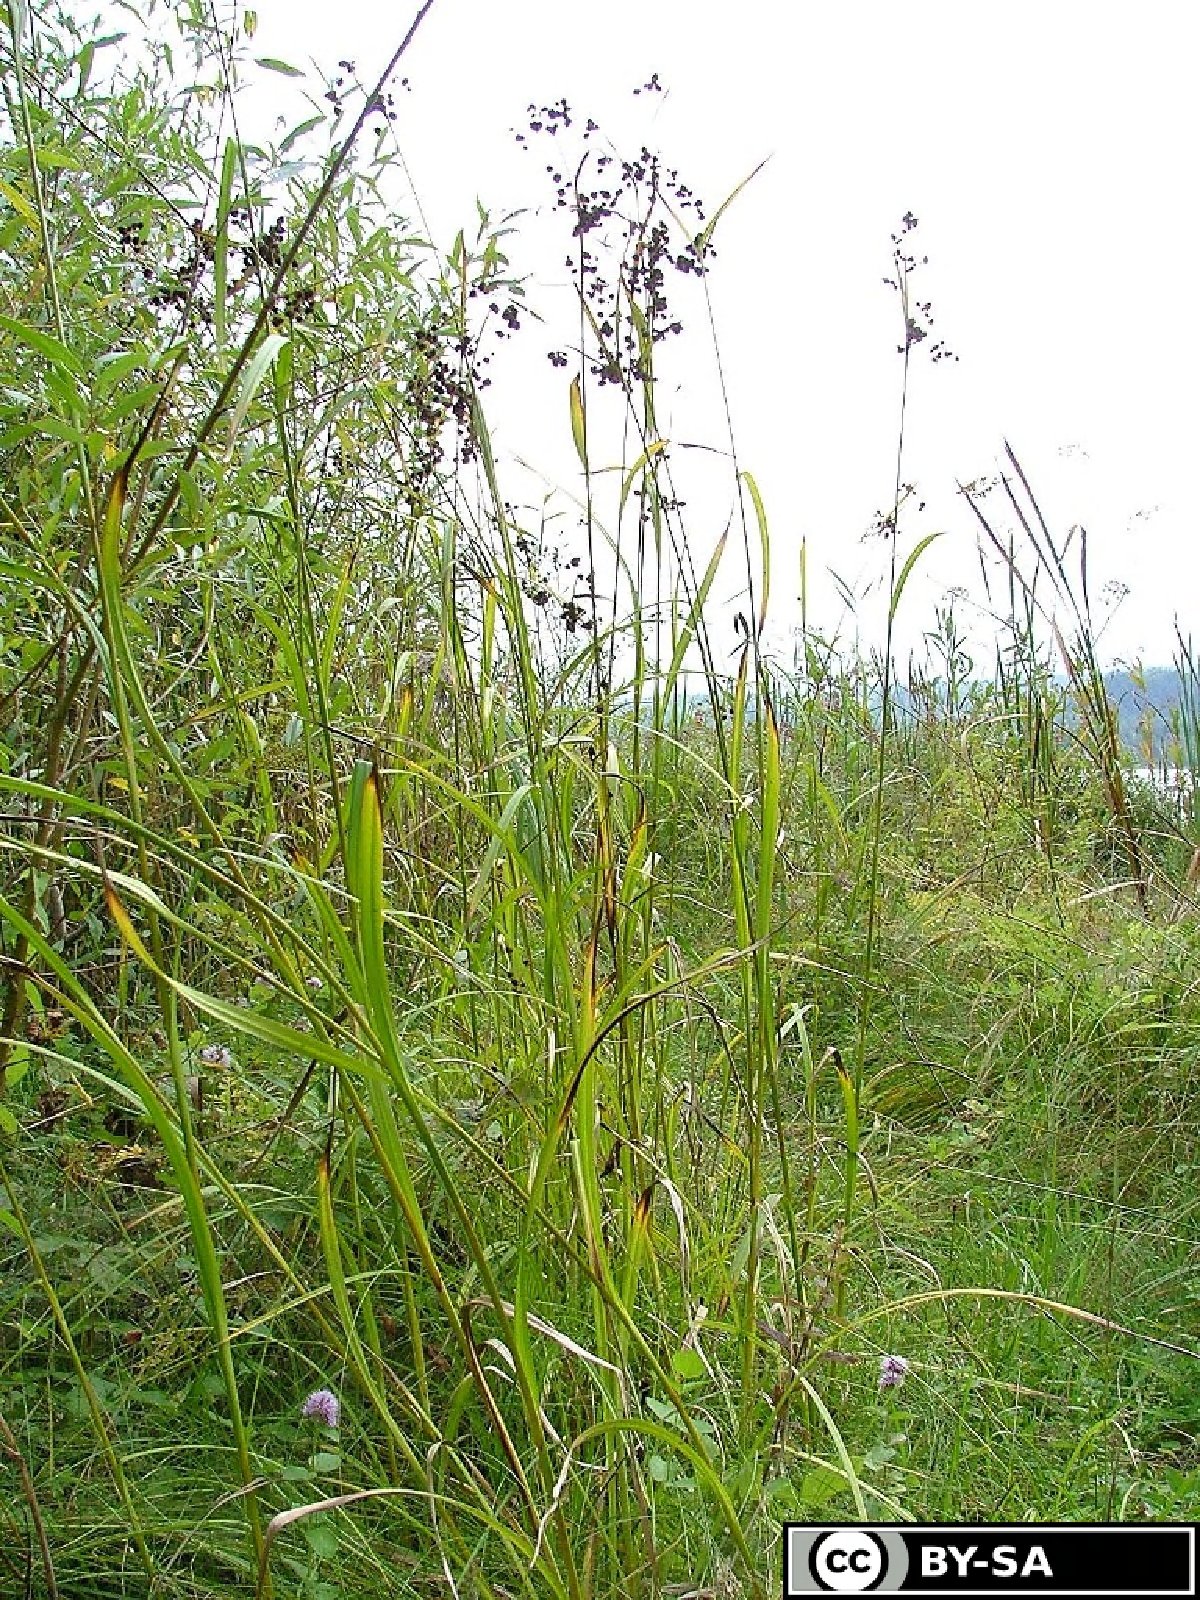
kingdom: Plantae
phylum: Tracheophyta
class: Liliopsida
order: Poales
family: Cyperaceae
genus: Scirpus
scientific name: Scirpus atrovirens
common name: Black bulrush
